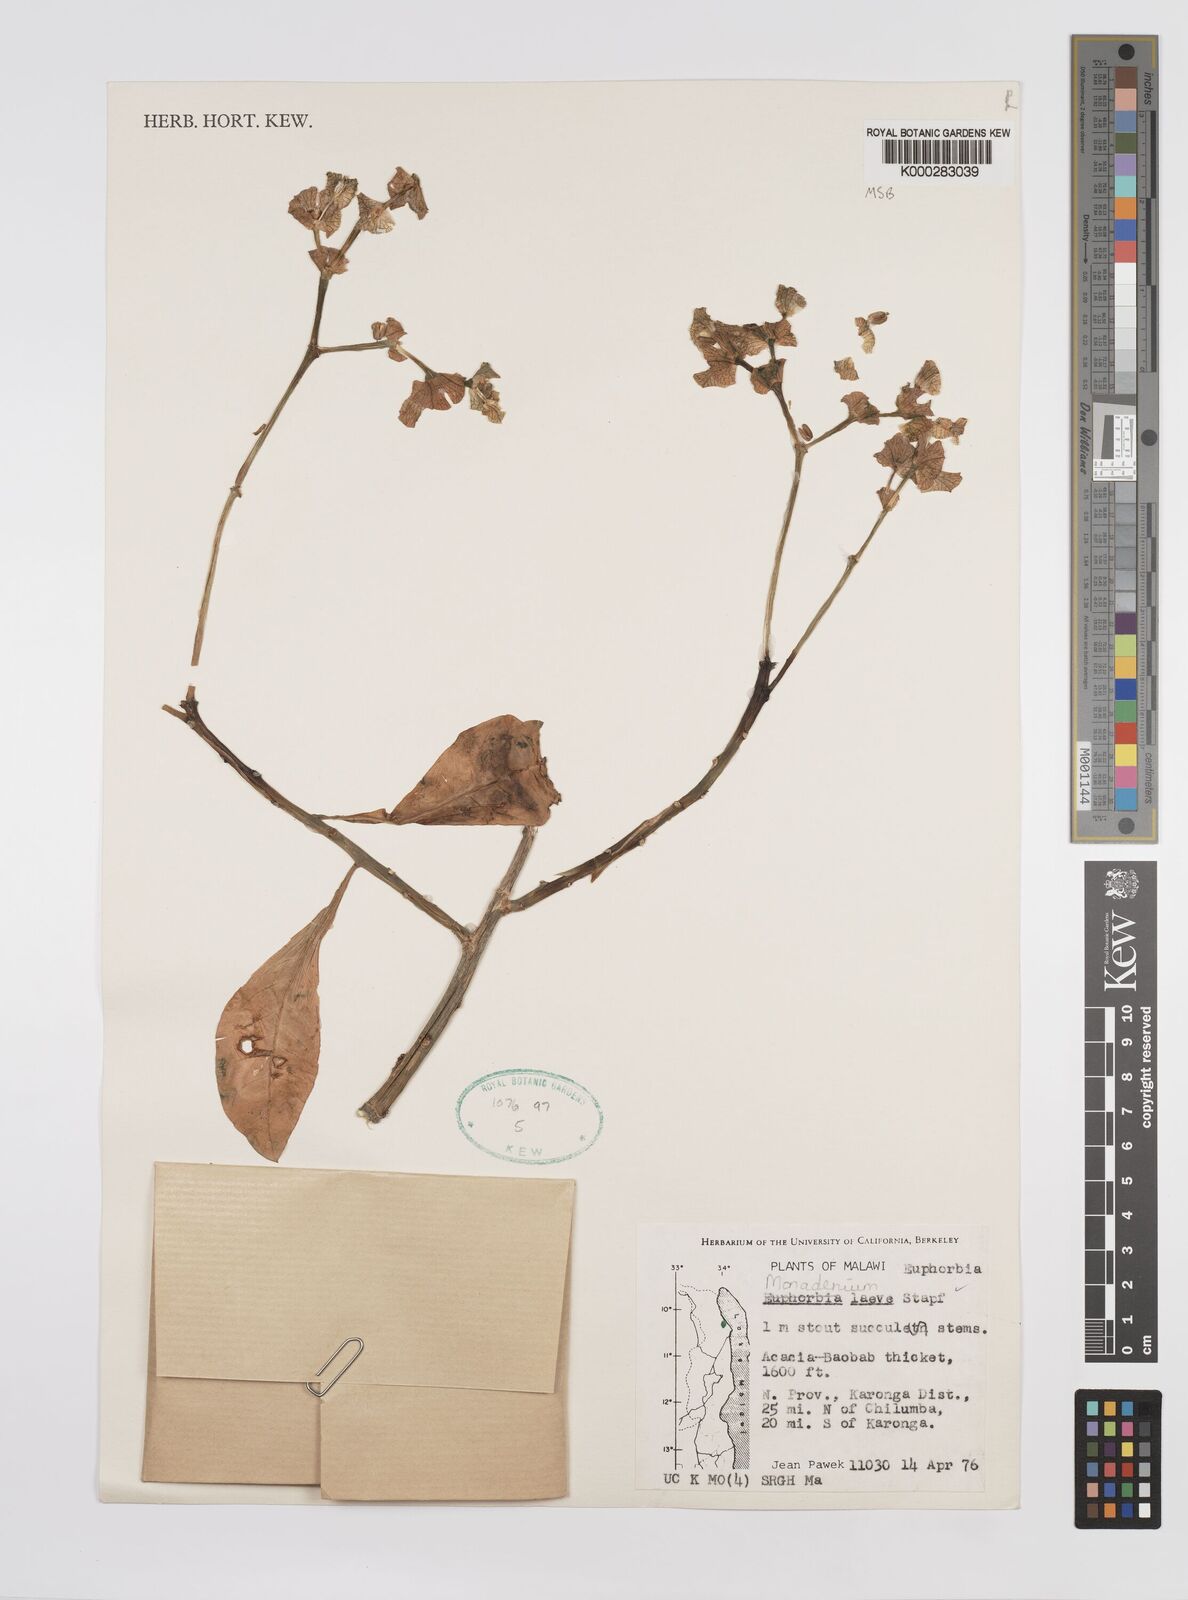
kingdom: Plantae
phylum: Tracheophyta
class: Magnoliopsida
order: Malpighiales
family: Euphorbiaceae
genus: Euphorbia
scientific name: Euphorbia pseudolaevis
